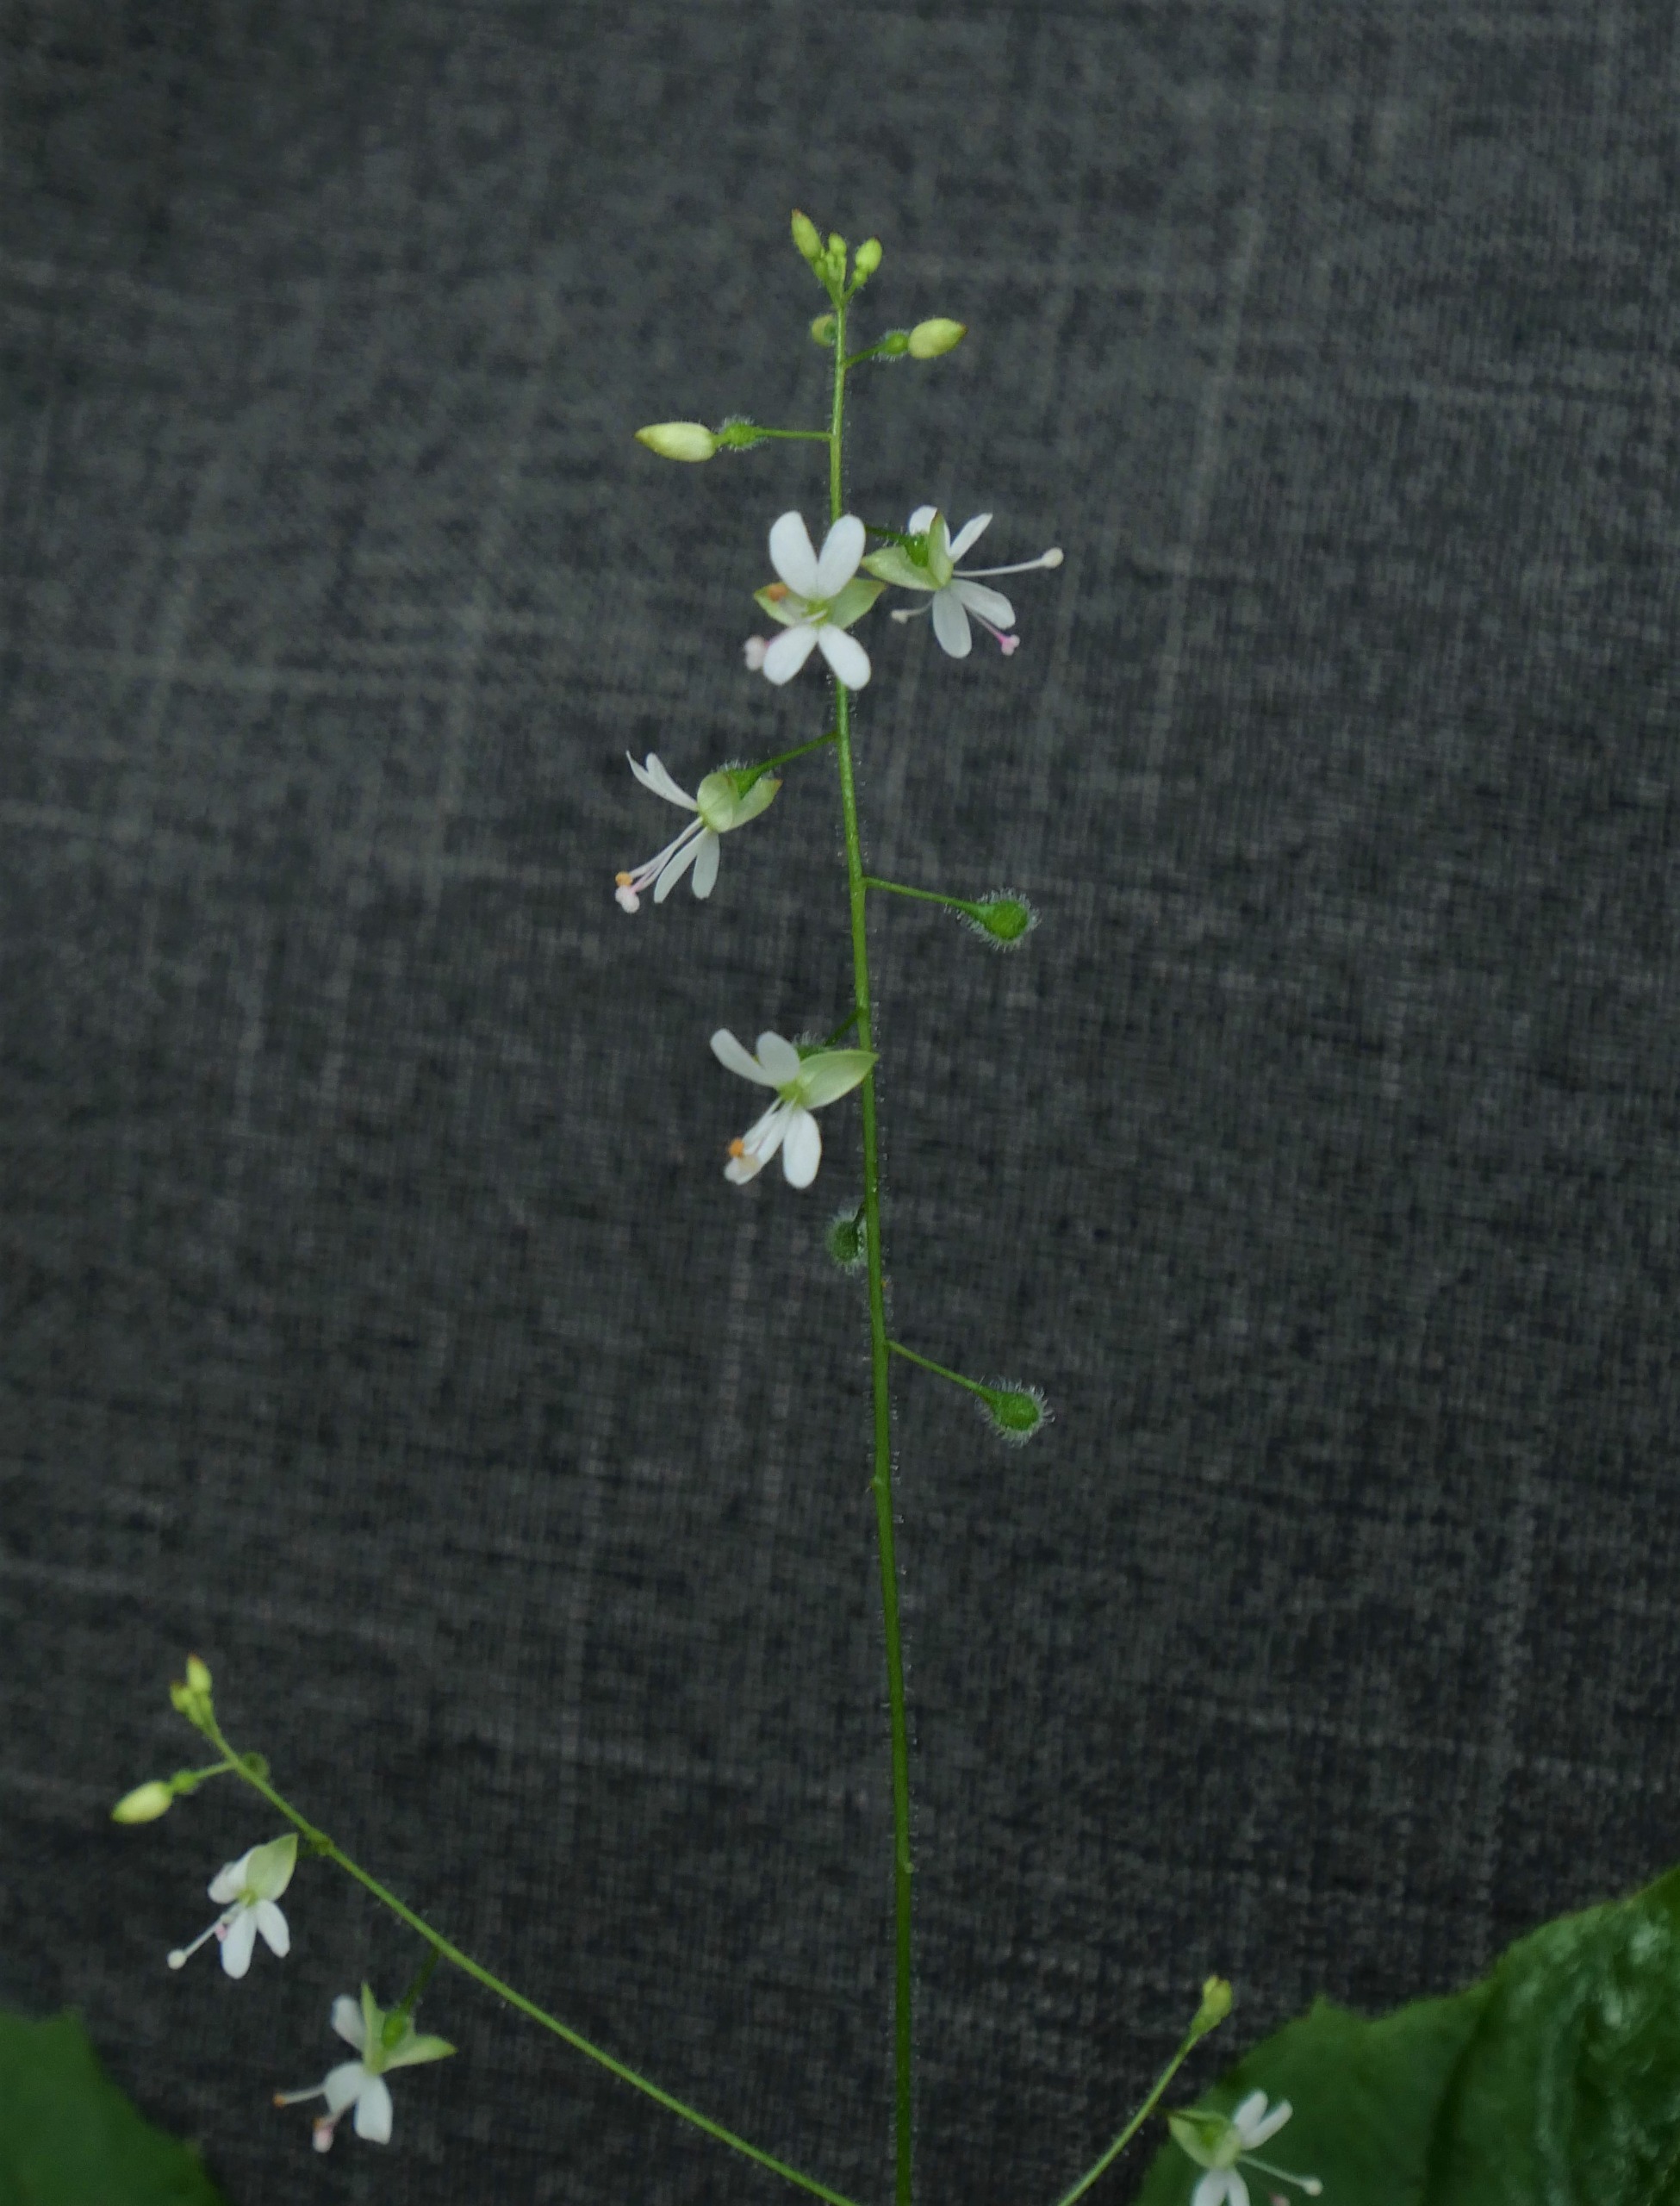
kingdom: Plantae
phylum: Tracheophyta
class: Magnoliopsida
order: Myrtales
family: Onagraceae
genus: Circaea
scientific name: Circaea intermedia
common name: Spidsbladet steffensurt
